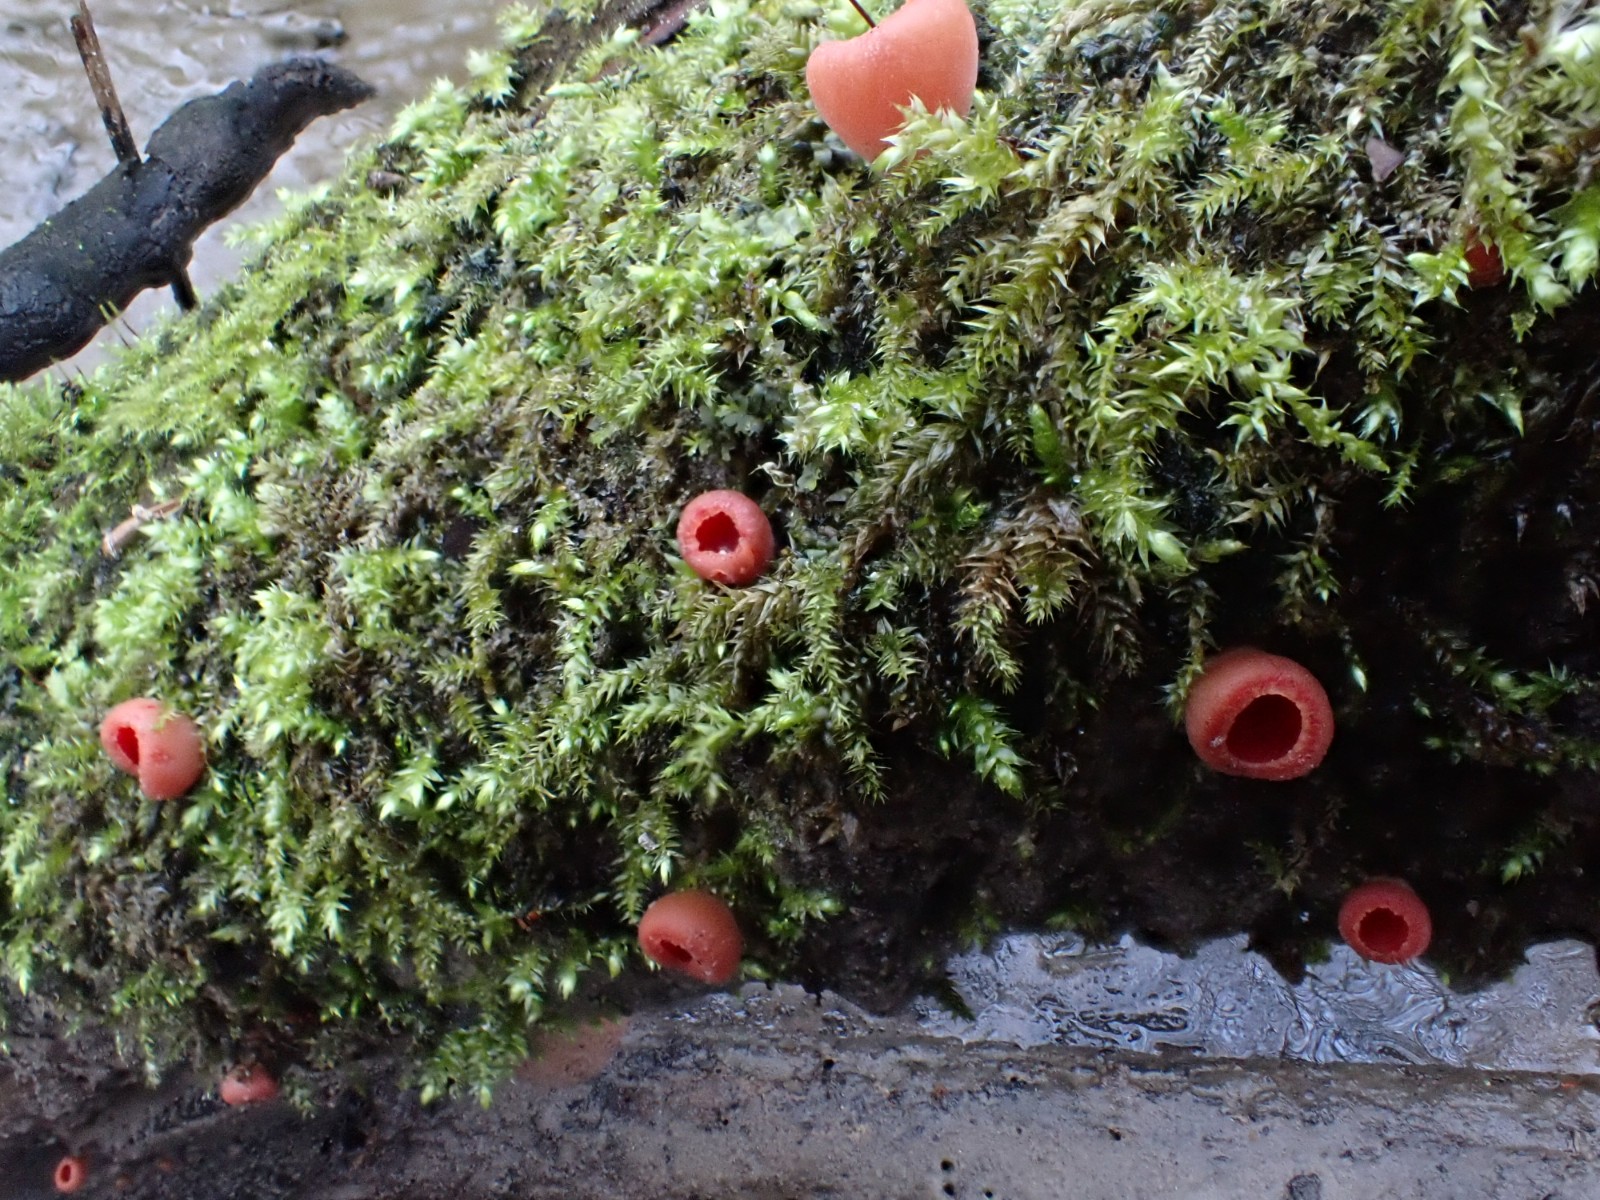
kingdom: Fungi
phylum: Ascomycota
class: Pezizomycetes
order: Pezizales
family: Sarcoscyphaceae
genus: Sarcoscypha
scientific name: Sarcoscypha austriaca
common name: krølhåret pragtbæger
